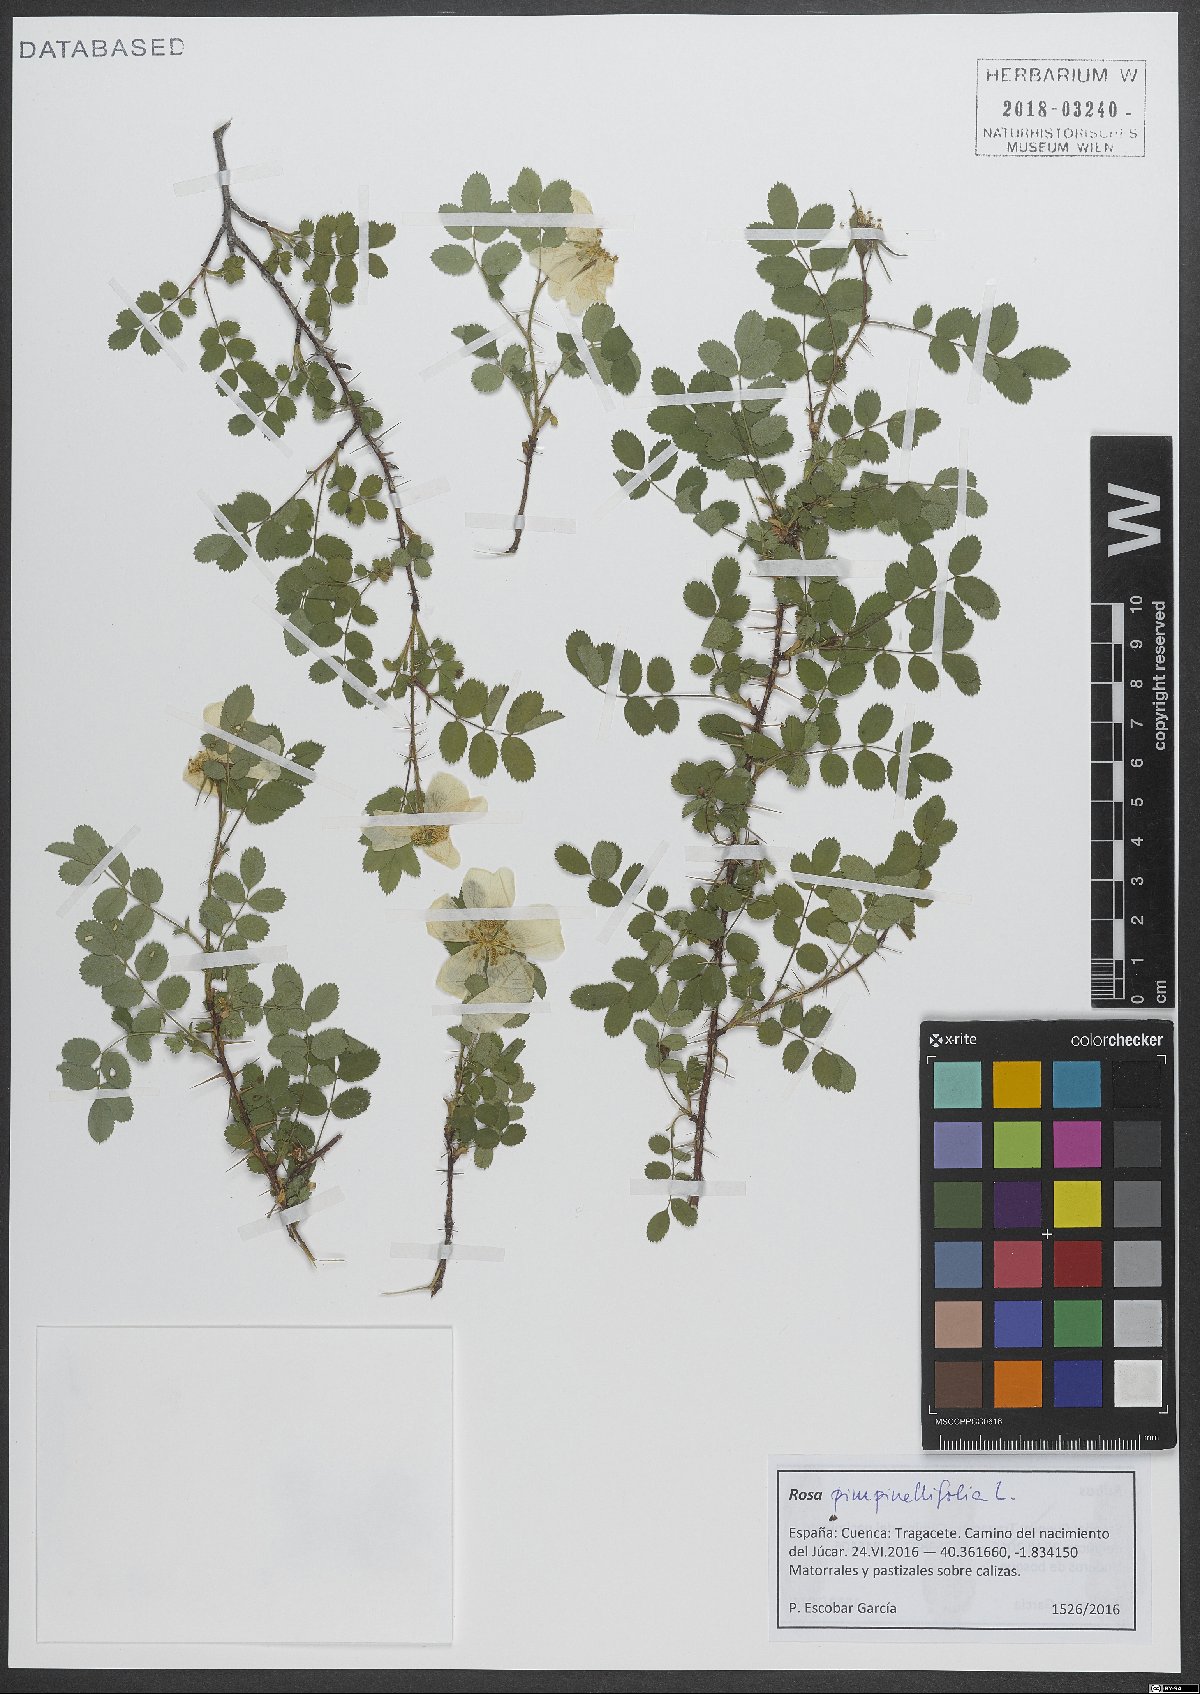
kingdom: Plantae
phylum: Tracheophyta
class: Magnoliopsida
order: Rosales
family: Rosaceae
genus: Rosa
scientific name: Rosa spinosissima
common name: Burnet rose
